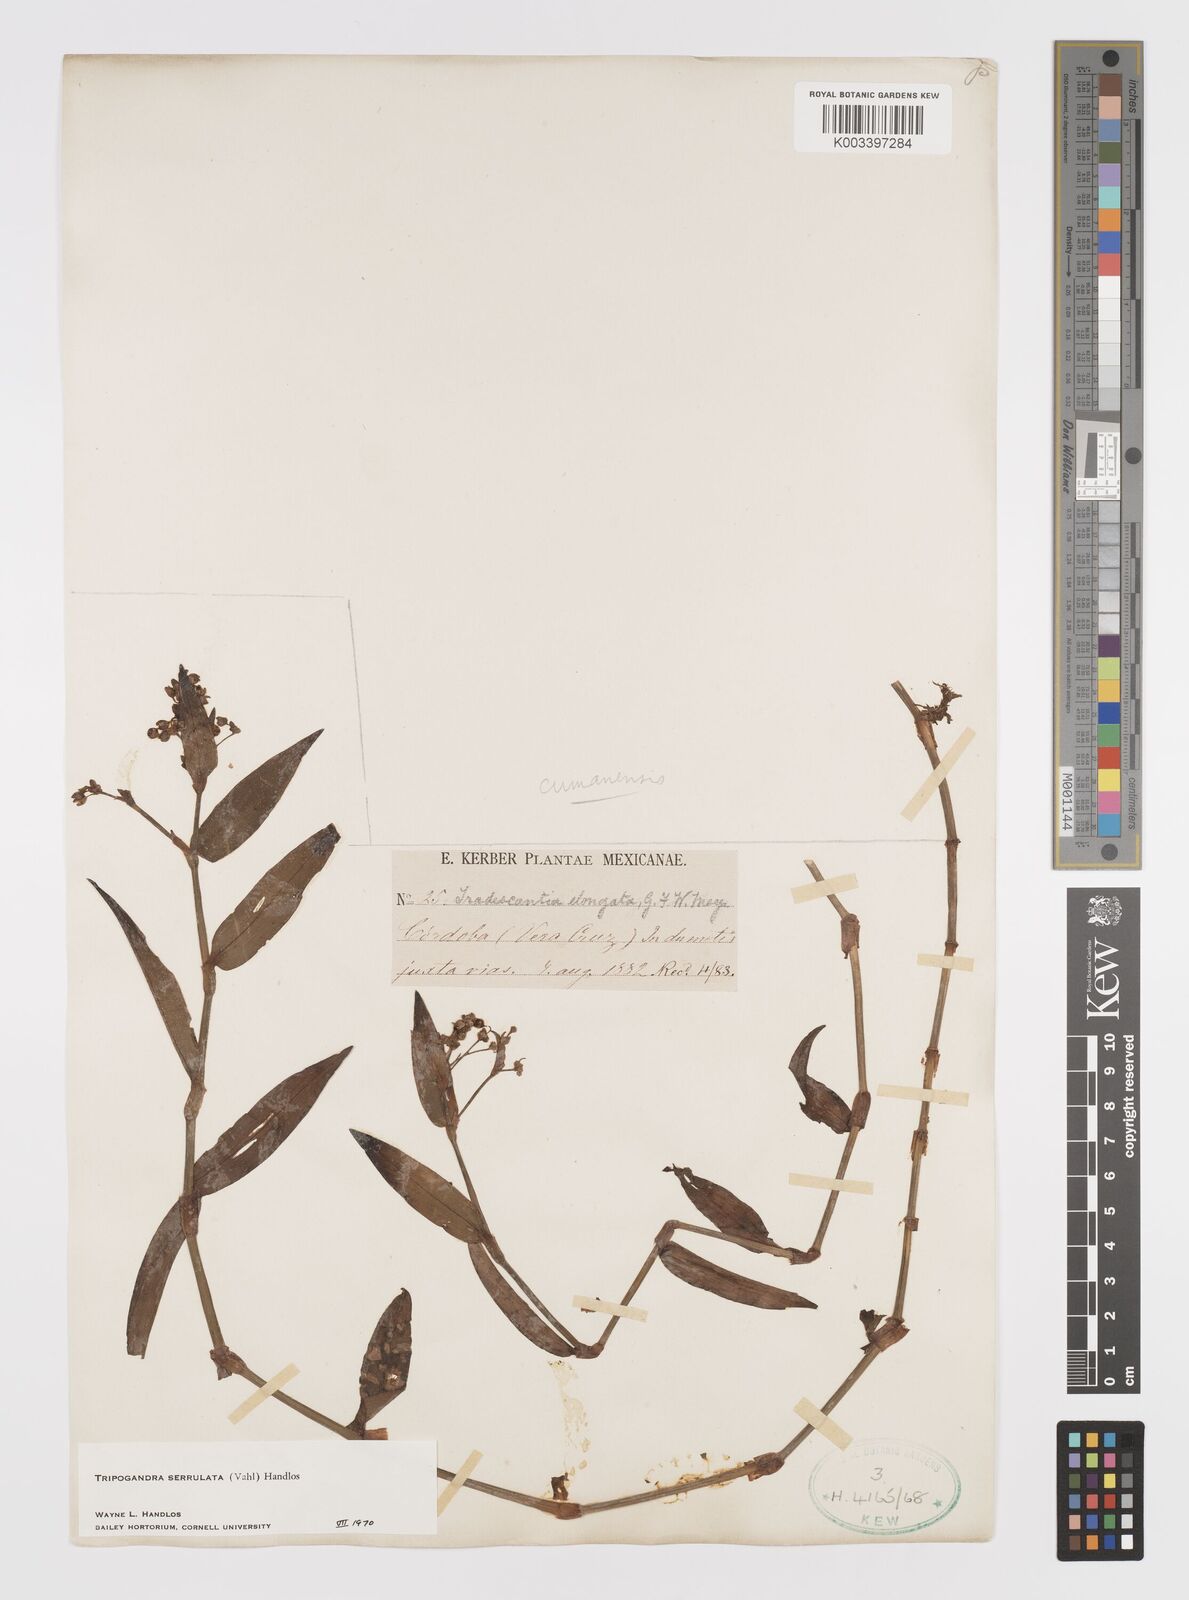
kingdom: Plantae
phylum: Tracheophyta
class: Liliopsida
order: Commelinales
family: Commelinaceae
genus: Callisia
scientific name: Callisia serrulata
